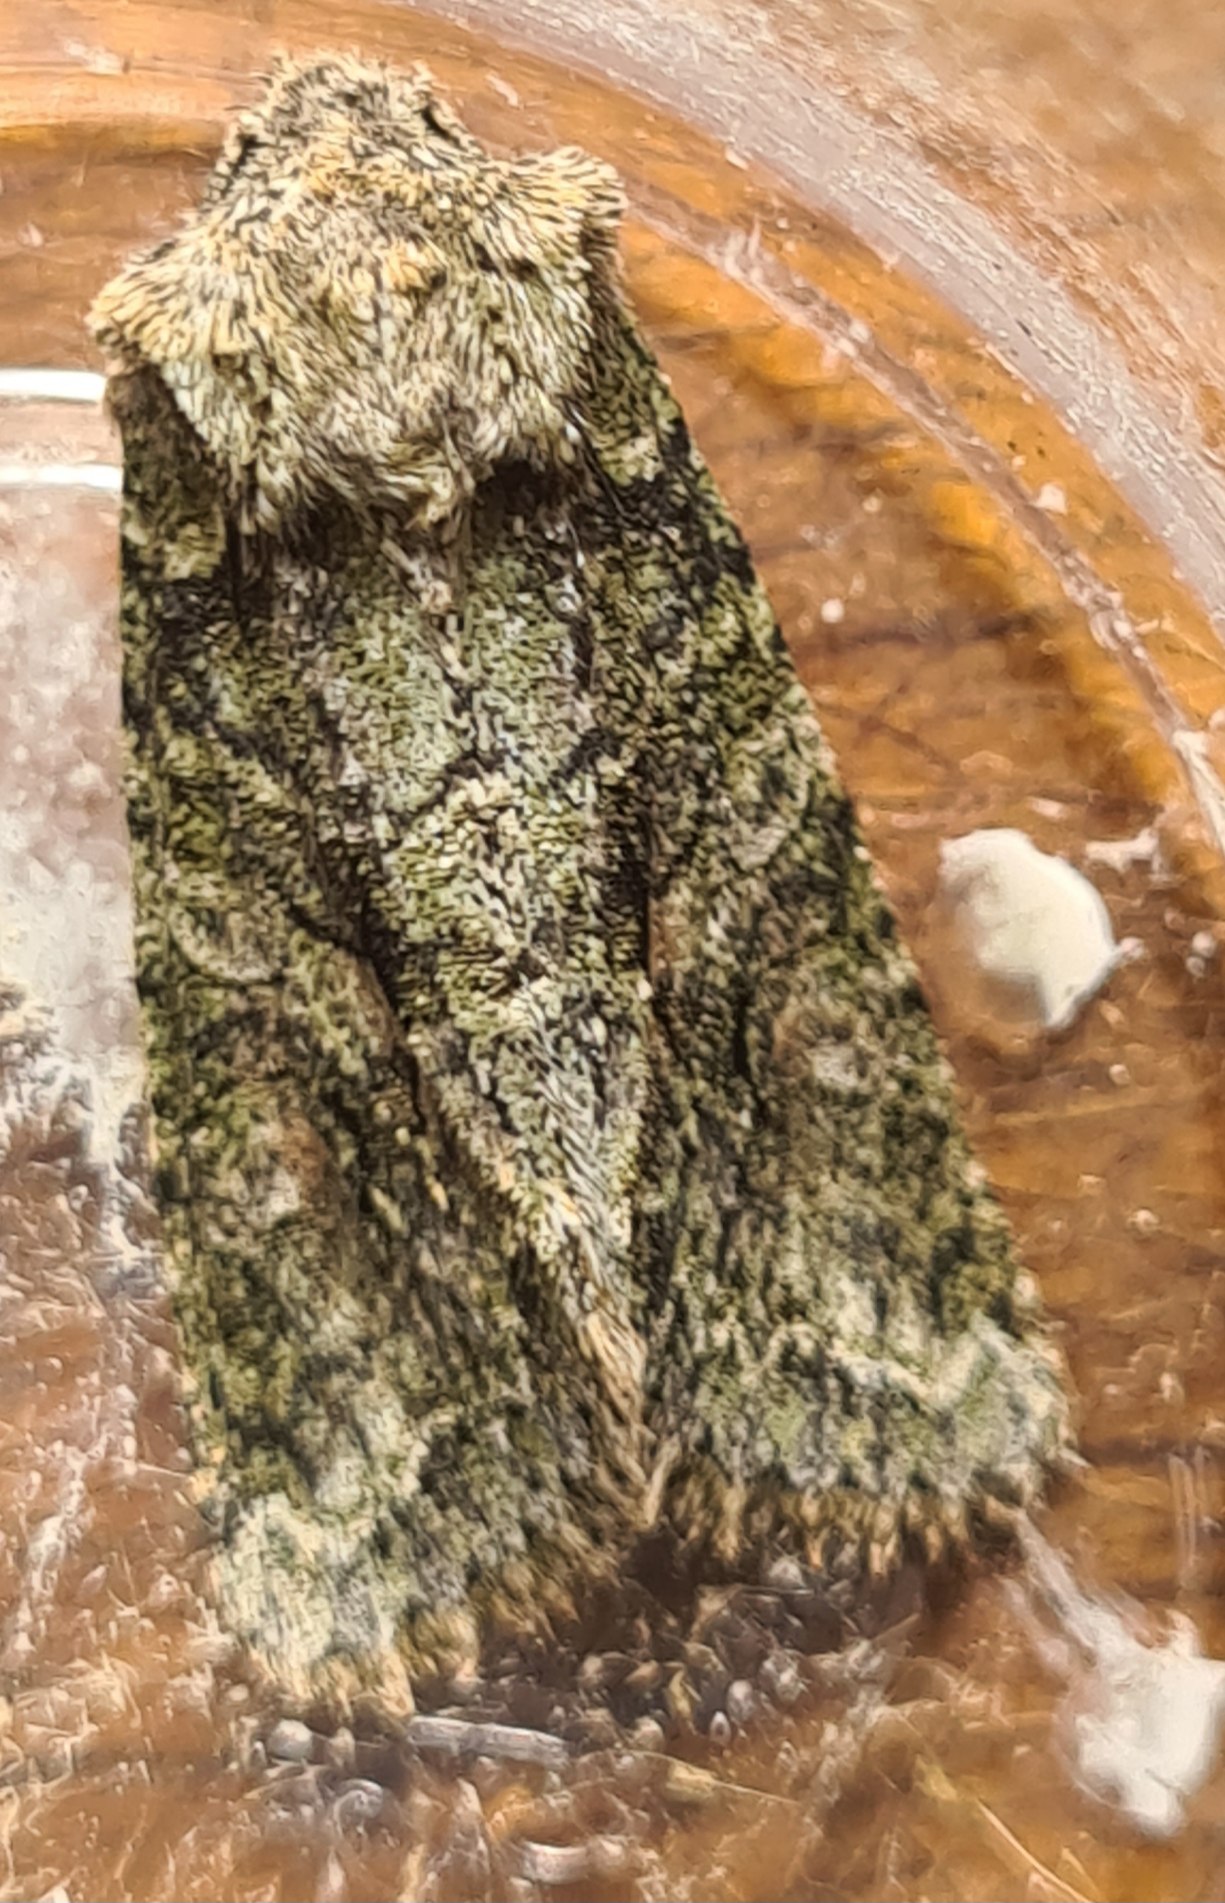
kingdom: Animalia
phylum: Arthropoda
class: Insecta
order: Lepidoptera
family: Noctuidae
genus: Dryobotodes
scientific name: Dryobotodes eremita
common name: Eremitugle
